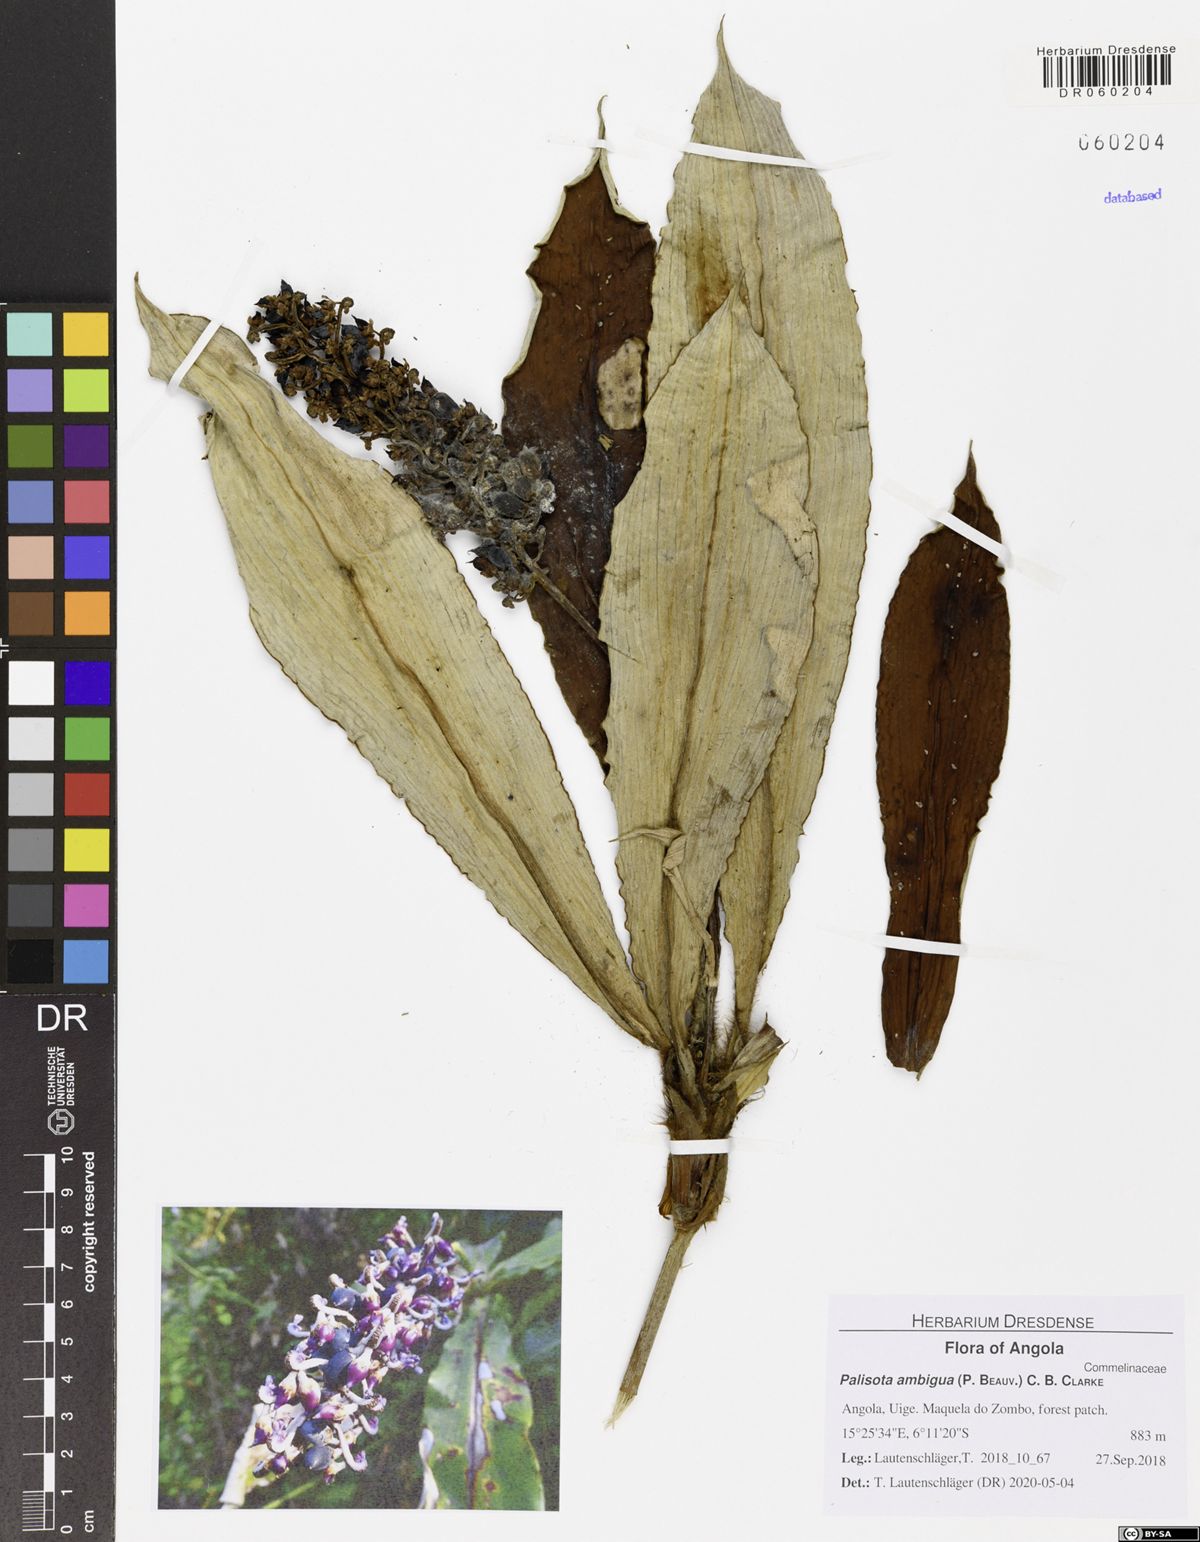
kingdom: Plantae
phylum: Tracheophyta
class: Liliopsida
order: Commelinales
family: Commelinaceae
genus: Palisota
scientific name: Palisota ambigua
